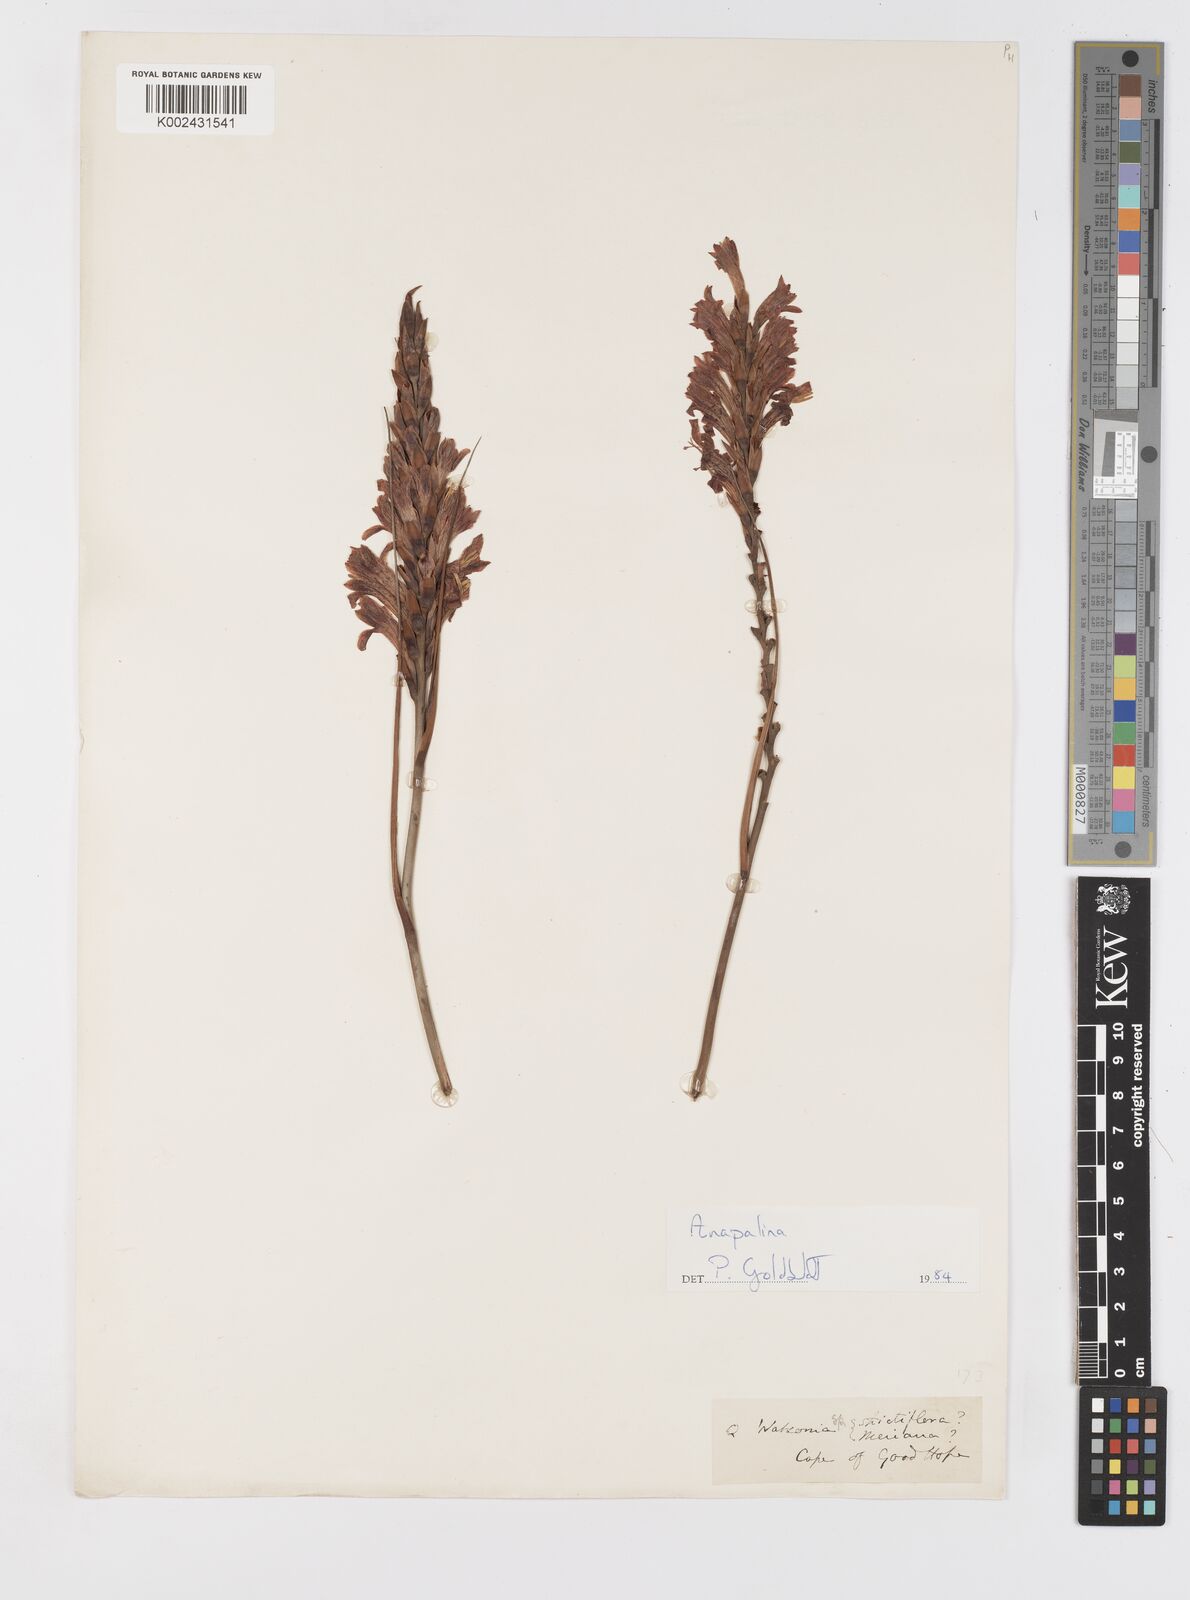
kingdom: Plantae
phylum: Tracheophyta
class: Liliopsida
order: Asparagales
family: Iridaceae
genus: Tritoniopsis
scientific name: Tritoniopsis
